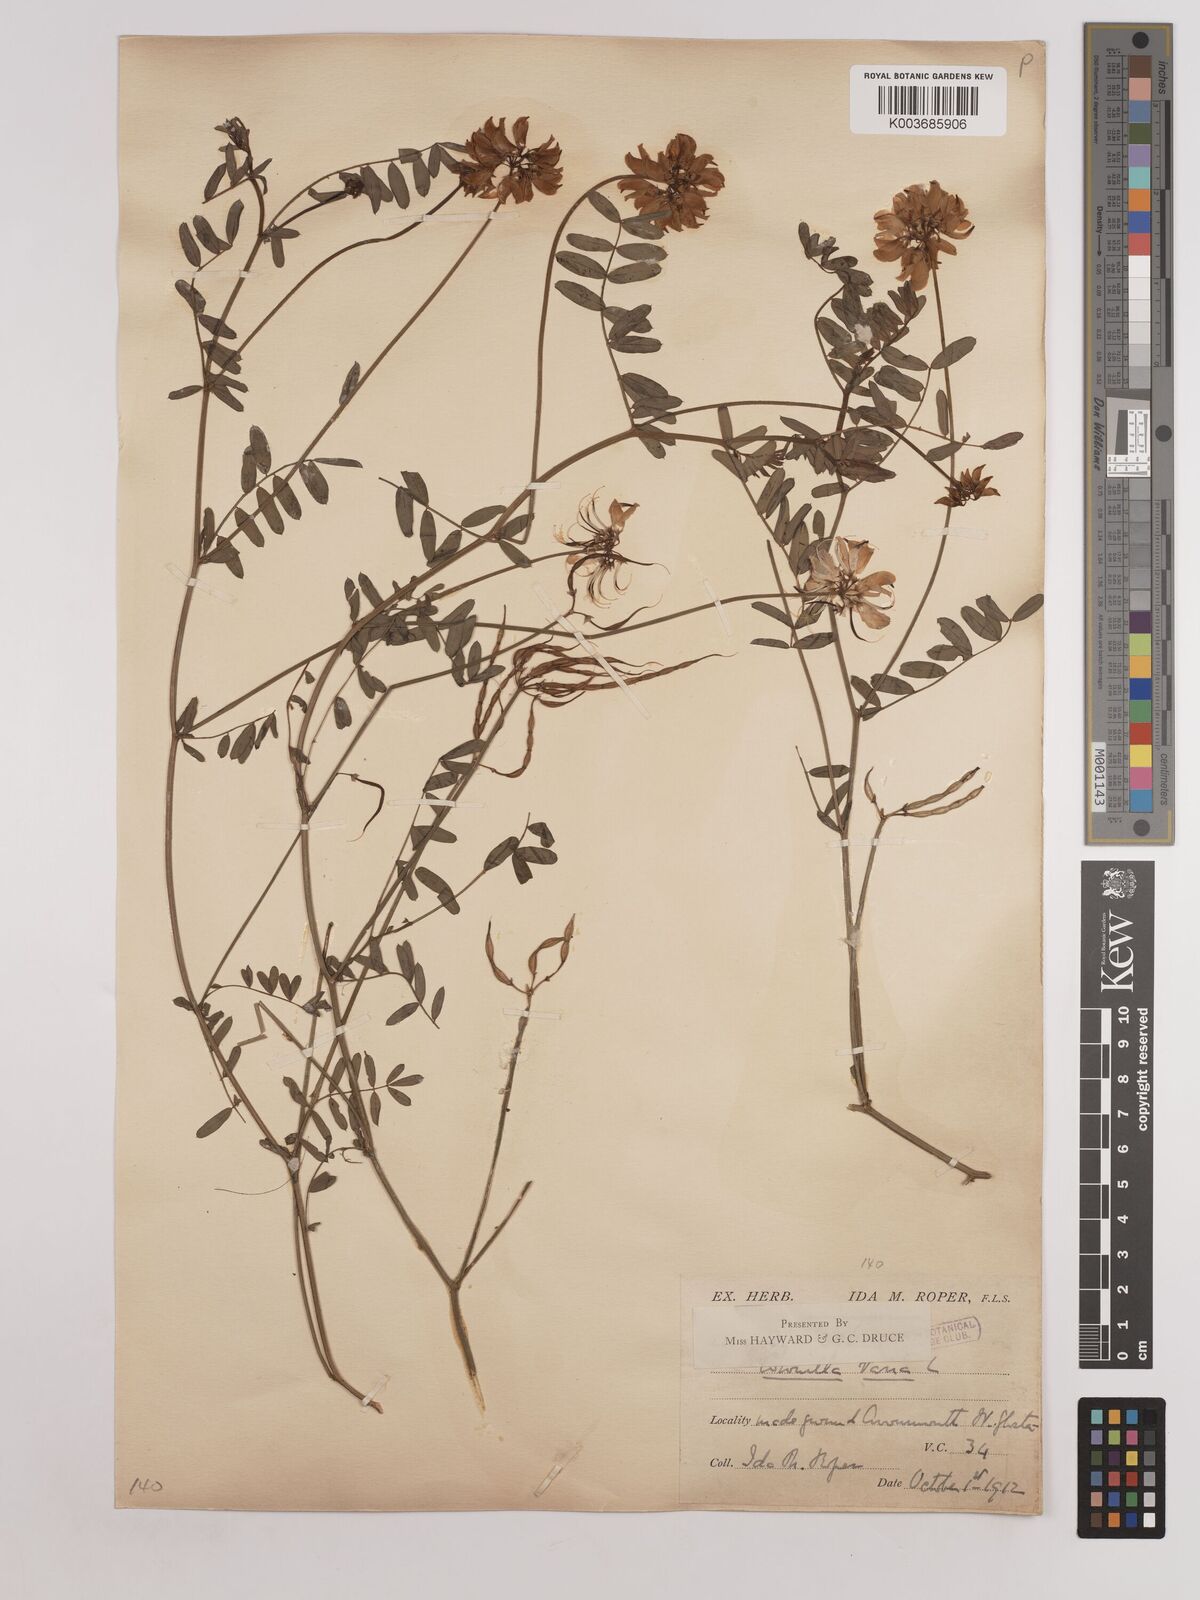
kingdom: Plantae
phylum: Tracheophyta
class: Magnoliopsida
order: Fabales
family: Fabaceae
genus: Coronilla
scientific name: Coronilla varia
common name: Crownvetch
